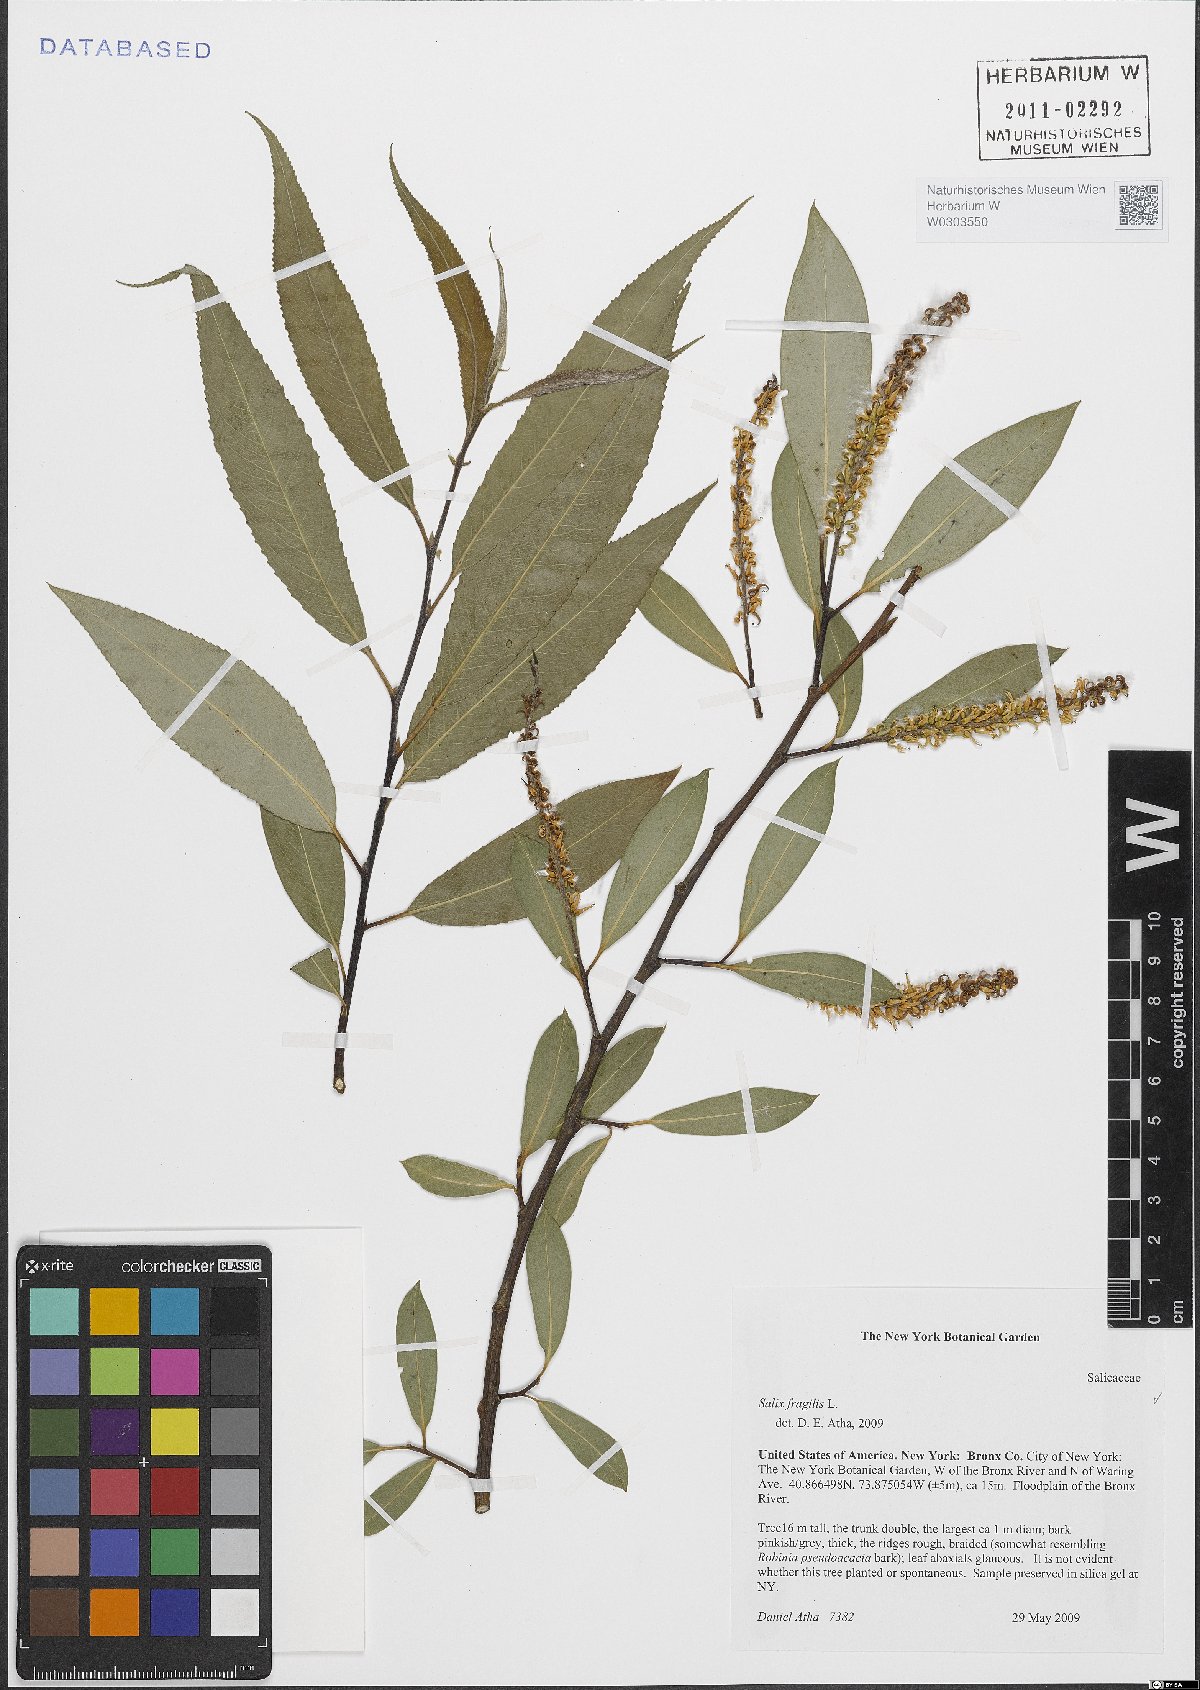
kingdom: Plantae
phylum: Tracheophyta
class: Magnoliopsida
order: Malpighiales
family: Salicaceae
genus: Salix
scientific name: Salix fragilis
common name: Crack willow
